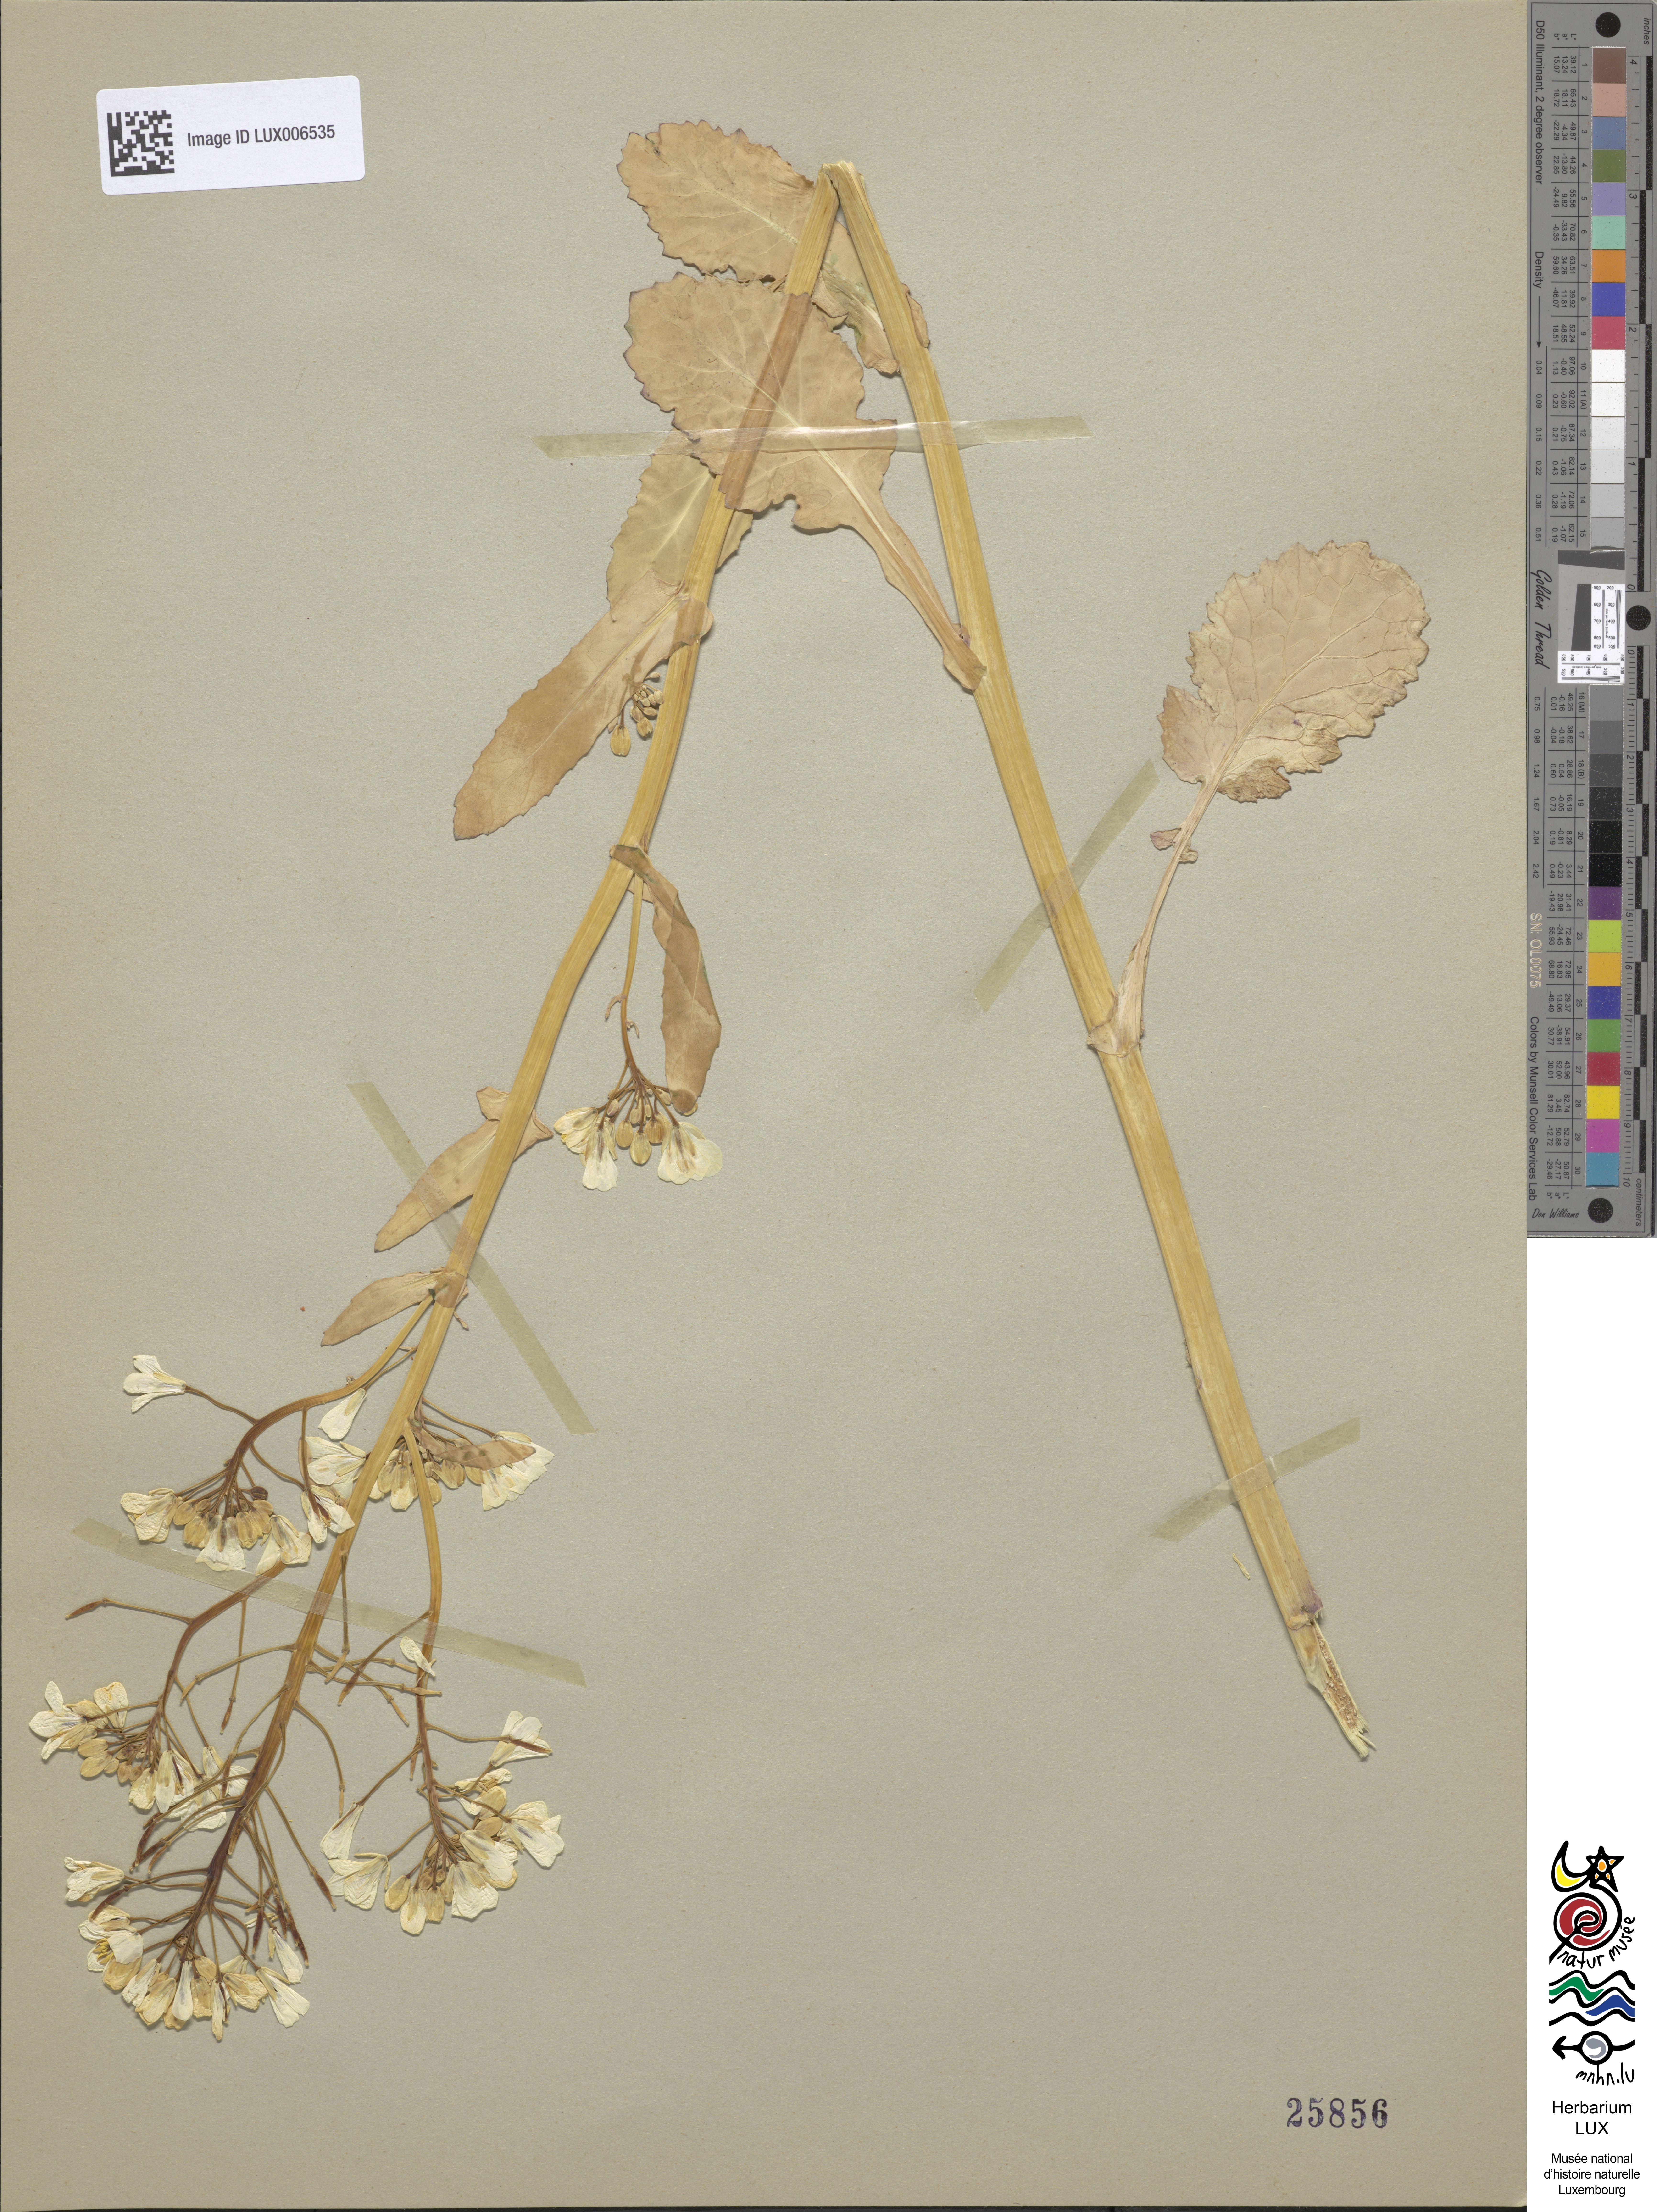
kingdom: Plantae
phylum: Tracheophyta
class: Magnoliopsida
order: Brassicales
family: Brassicaceae
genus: Brassica
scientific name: Brassica
